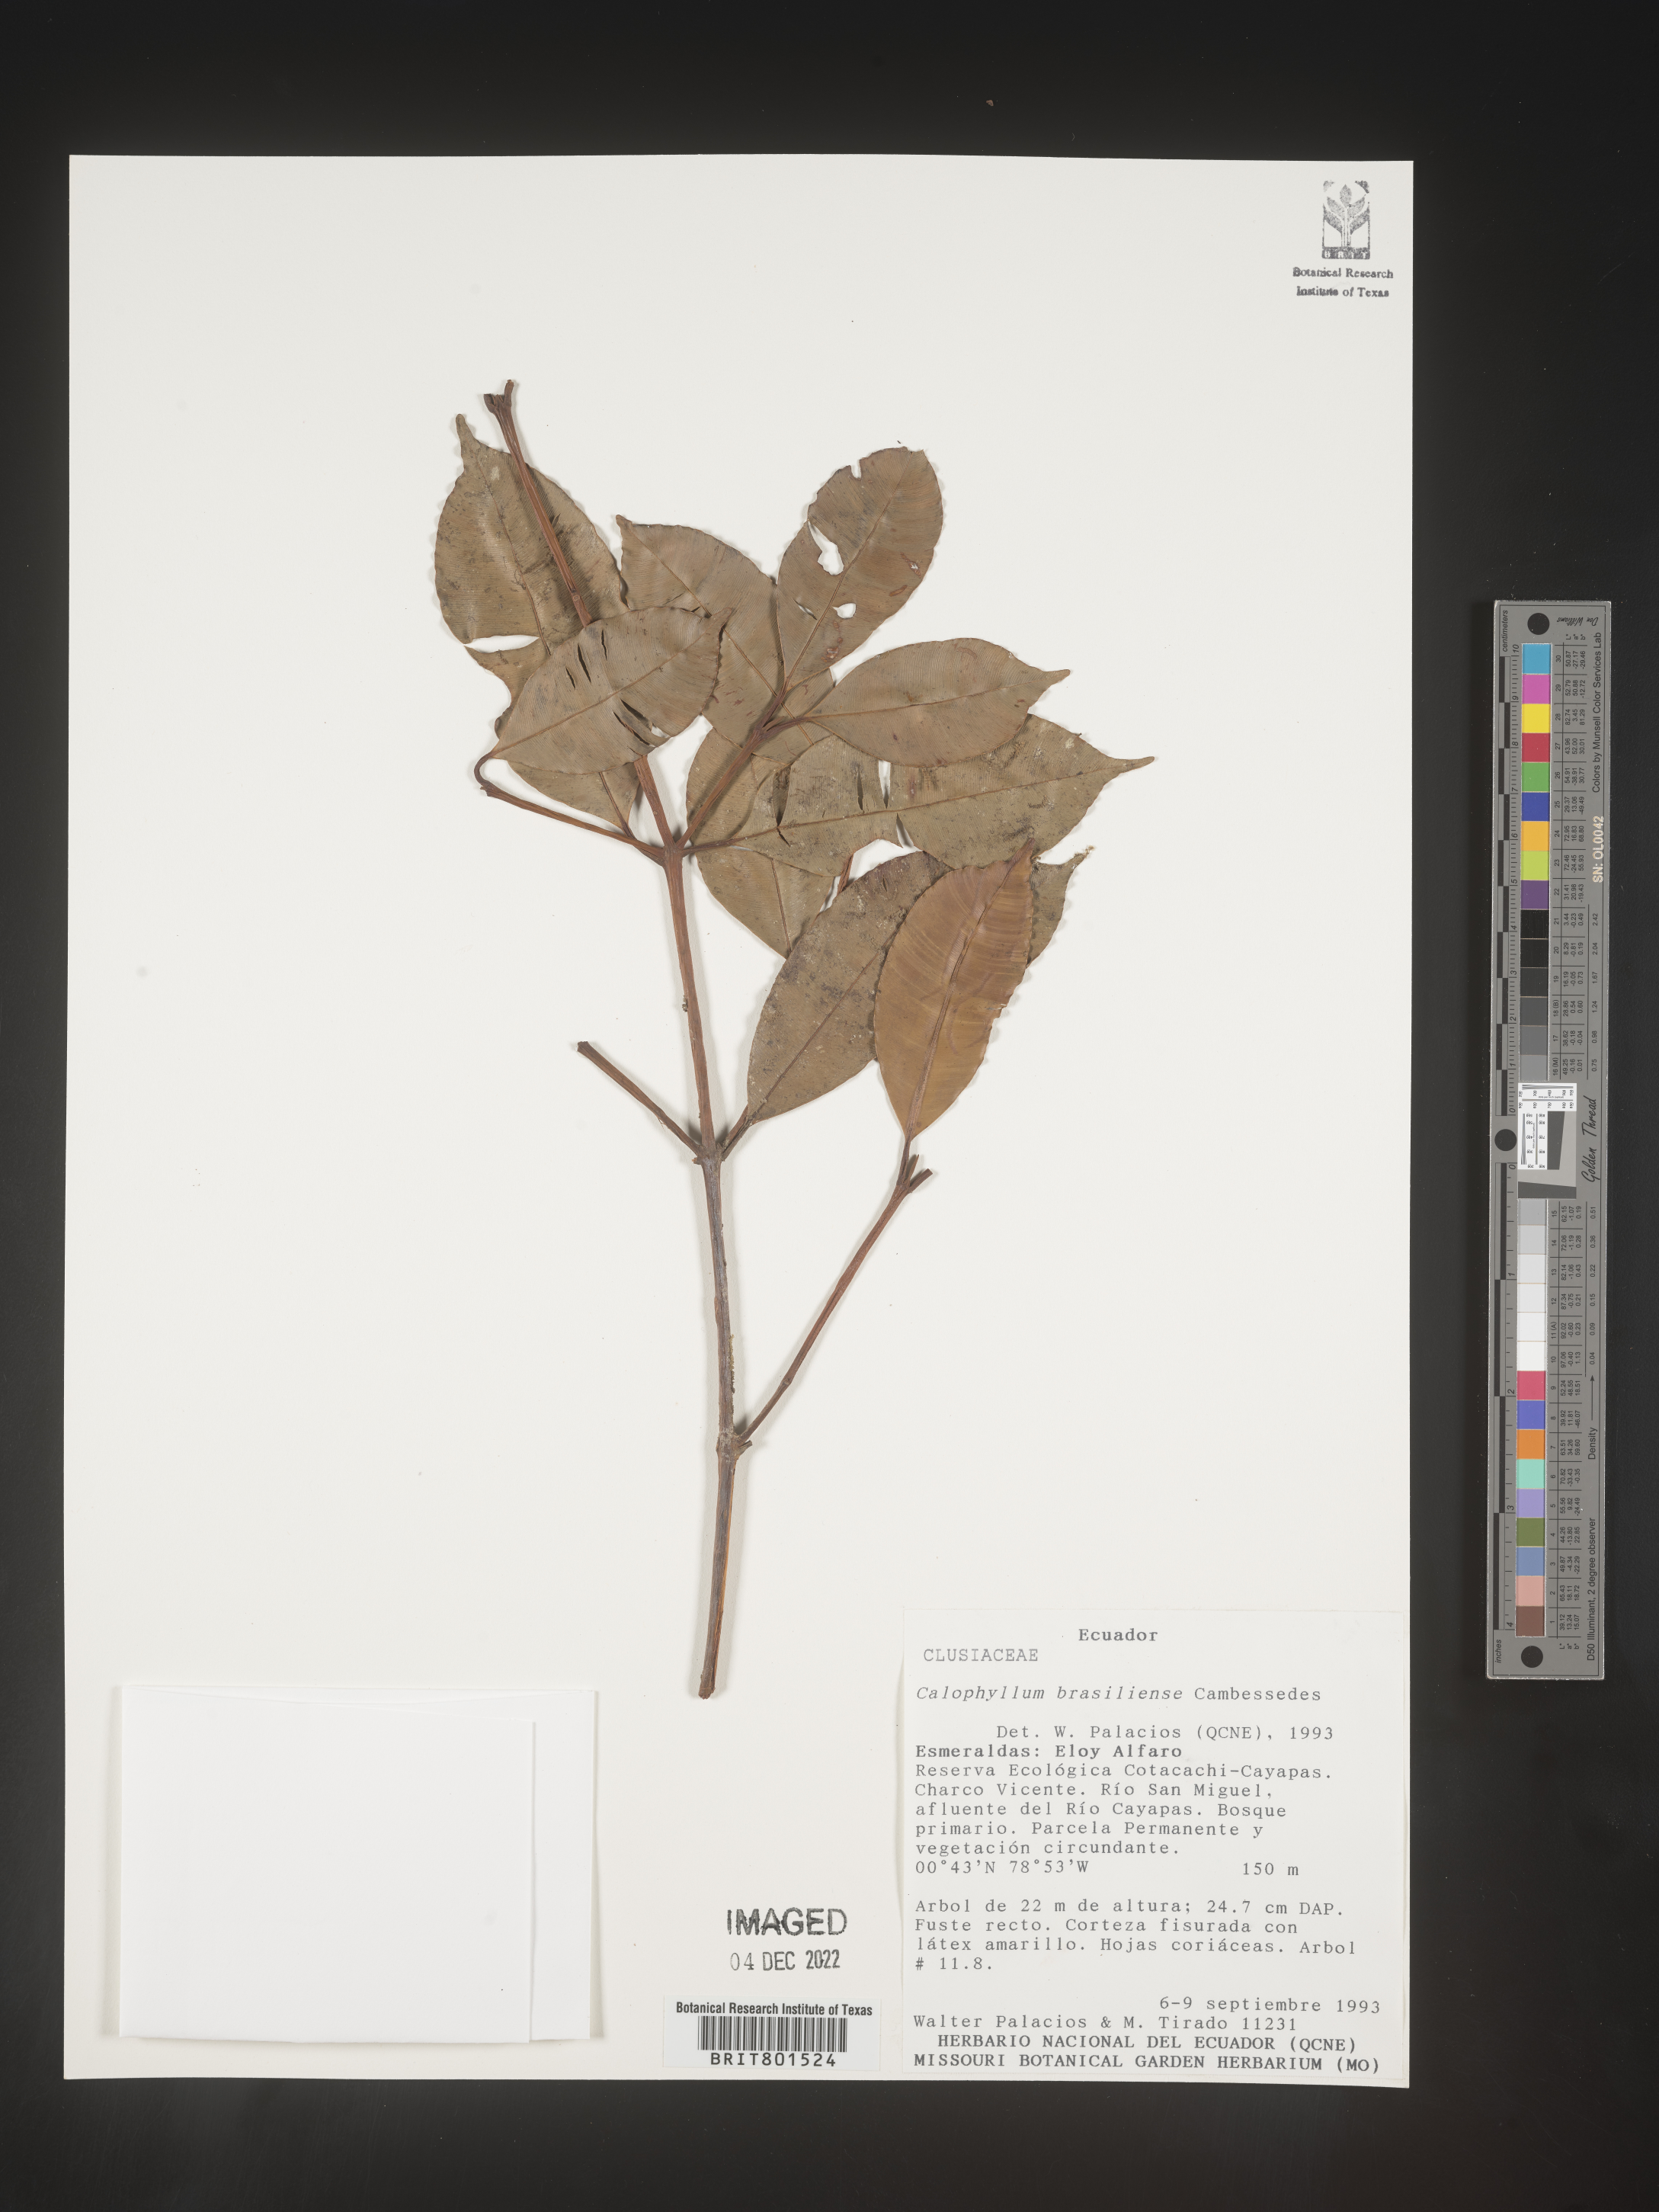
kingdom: Plantae
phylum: Tracheophyta
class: Magnoliopsida
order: Malpighiales
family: Calophyllaceae
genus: Calophyllum
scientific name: Calophyllum brasiliense
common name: Santa maria
